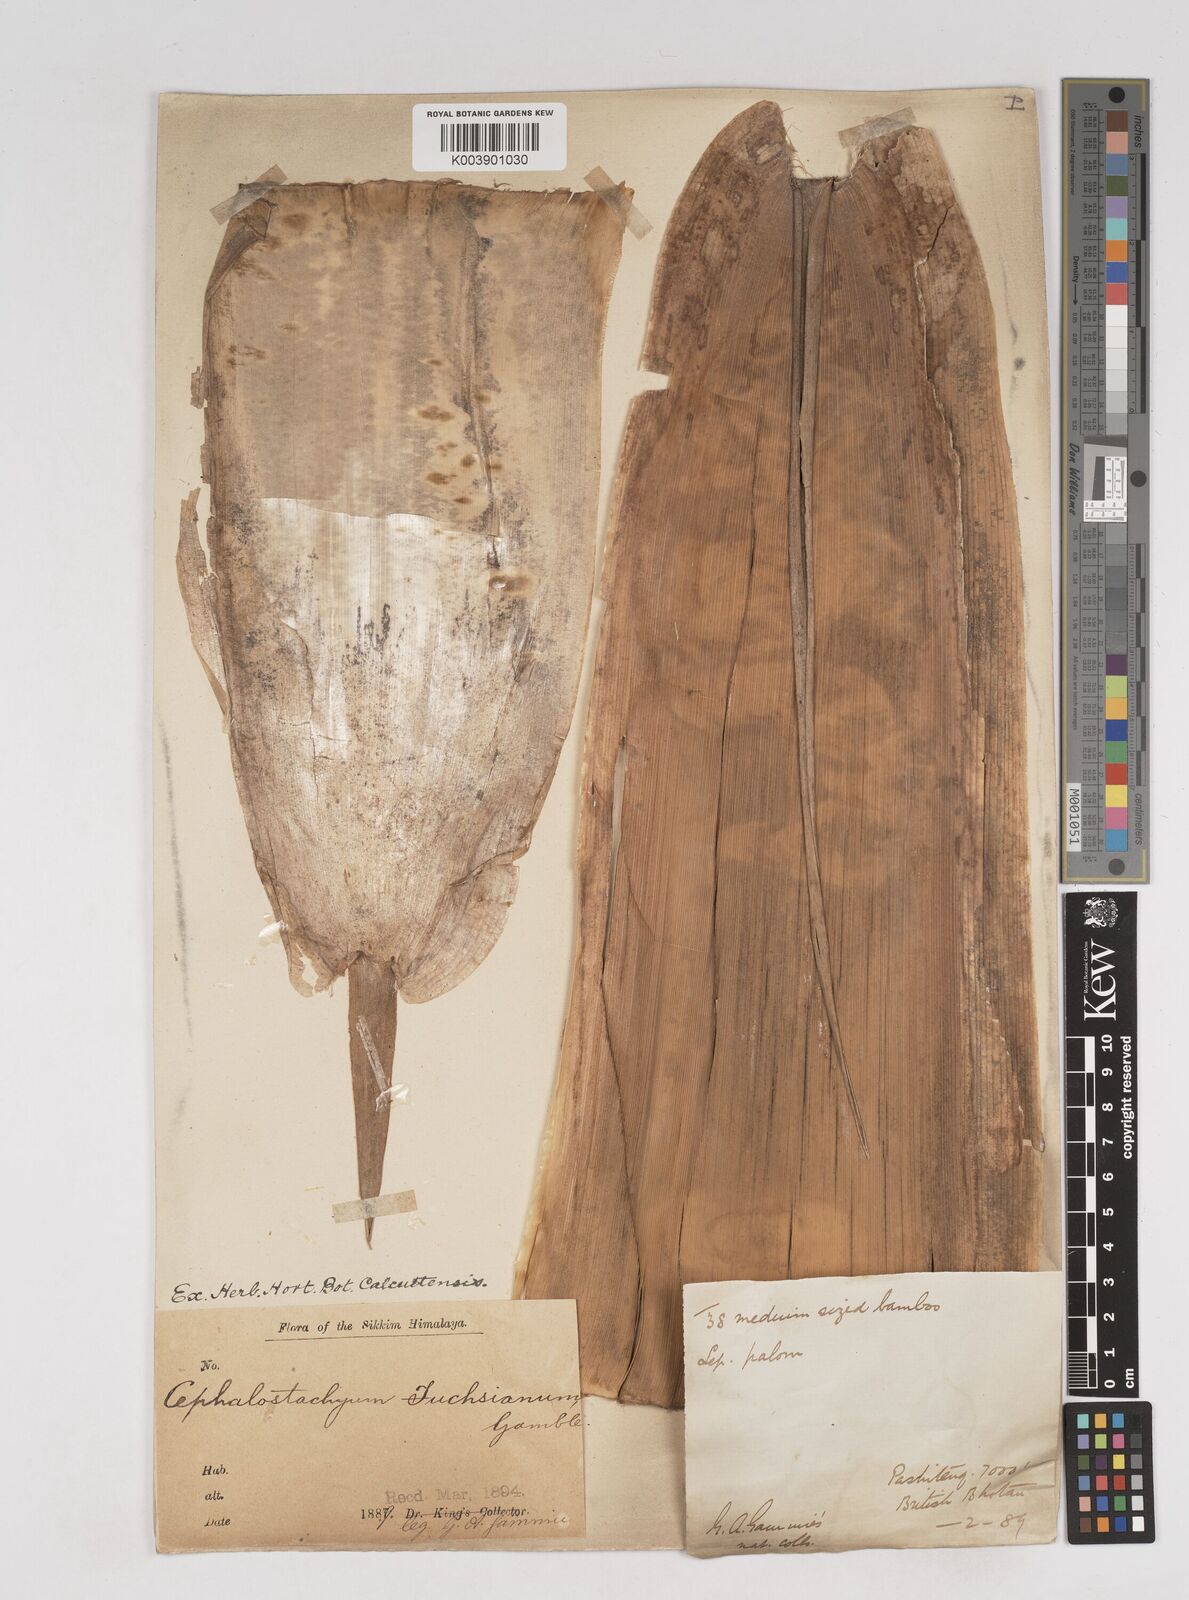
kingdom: Plantae
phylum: Tracheophyta
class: Liliopsida
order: Poales
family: Poaceae
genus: Cephalostachyum
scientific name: Cephalostachyum latifolium
